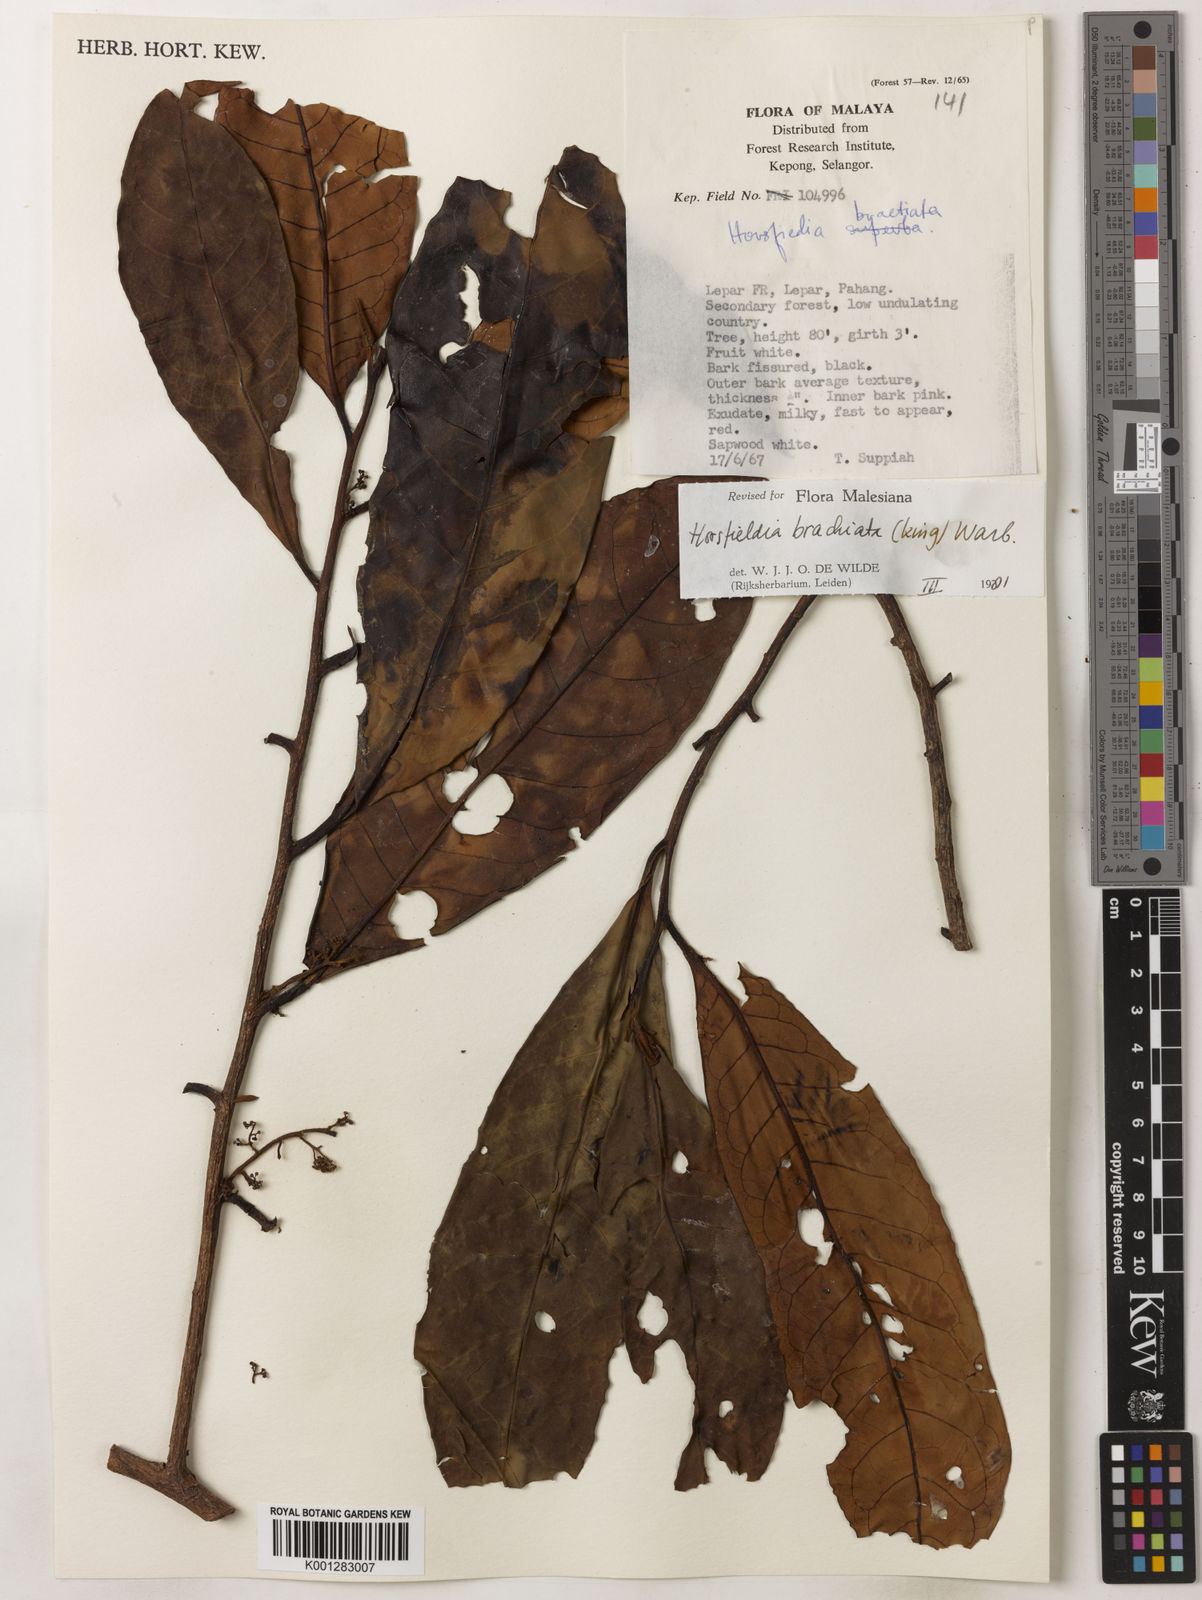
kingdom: Plantae
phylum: Tracheophyta
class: Magnoliopsida
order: Magnoliales
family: Myristicaceae
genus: Horsfieldia
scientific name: Horsfieldia brachiata
